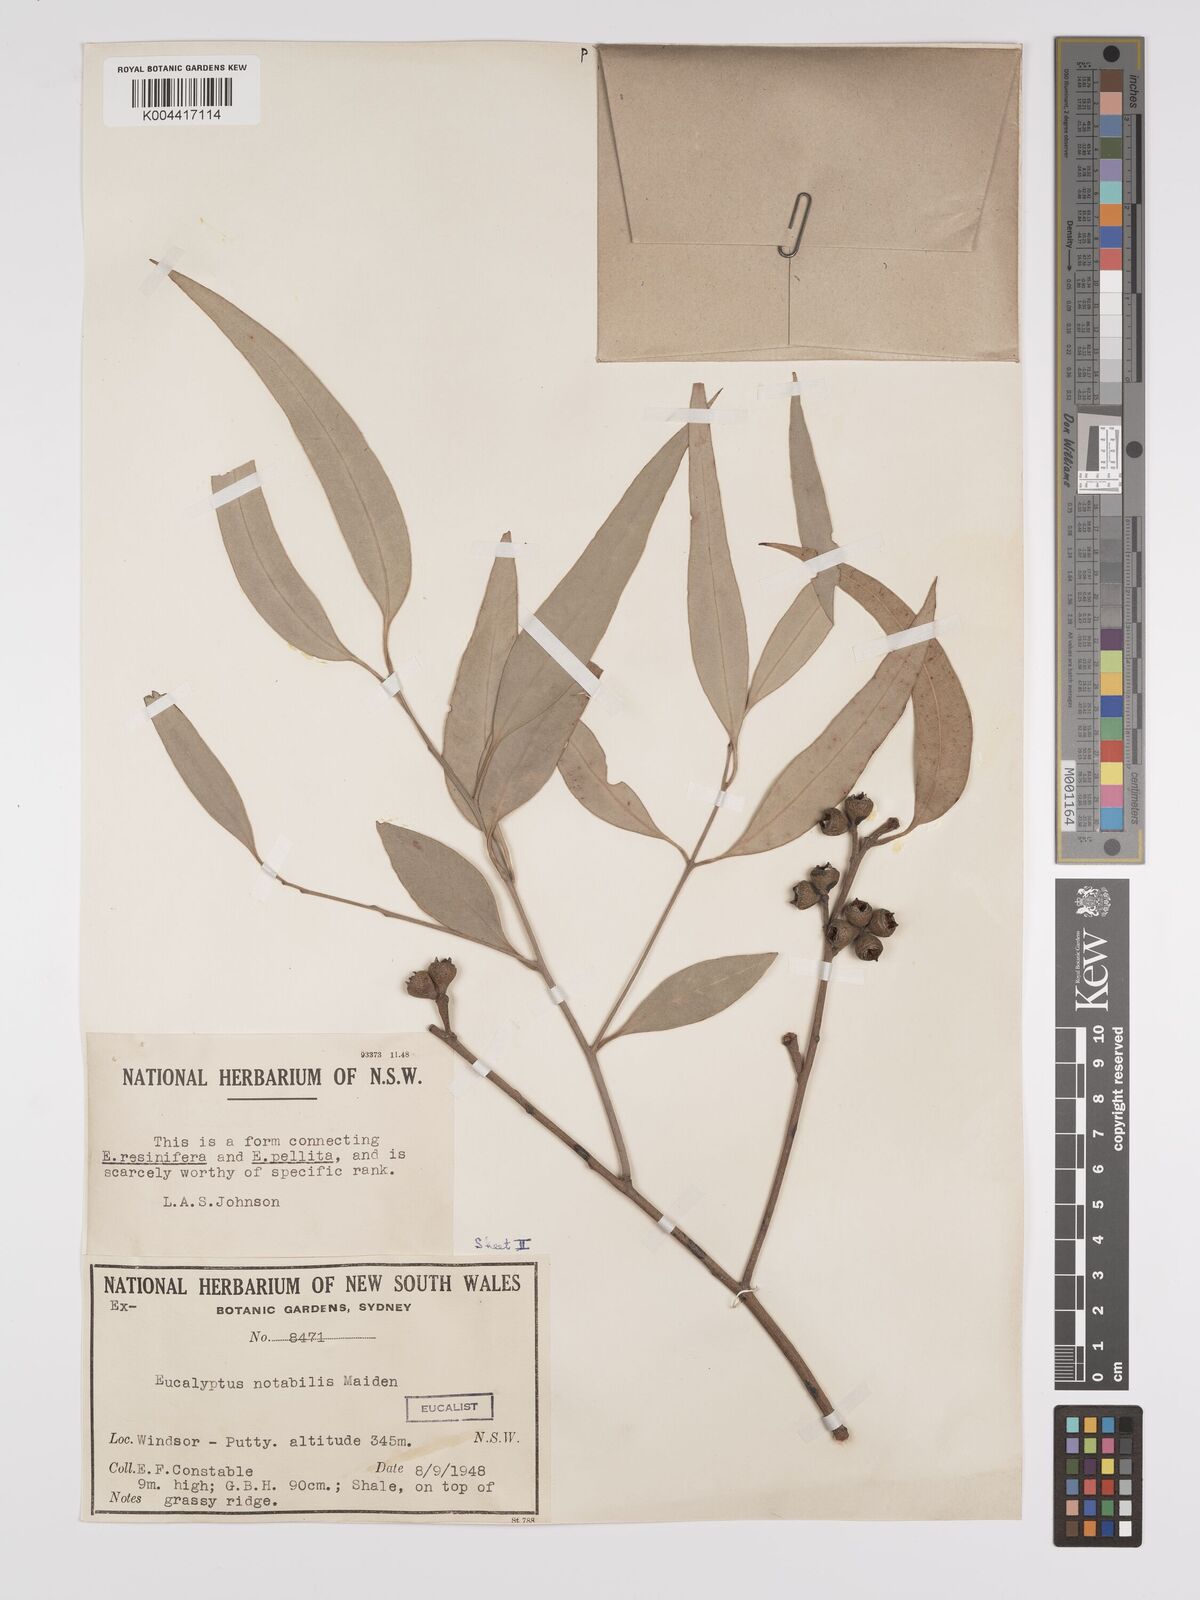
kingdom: Plantae
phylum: Tracheophyta
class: Magnoliopsida
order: Myrtales
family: Myrtaceae
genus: Eucalyptus
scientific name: Eucalyptus notabilis
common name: Blue mountains-mahogany
